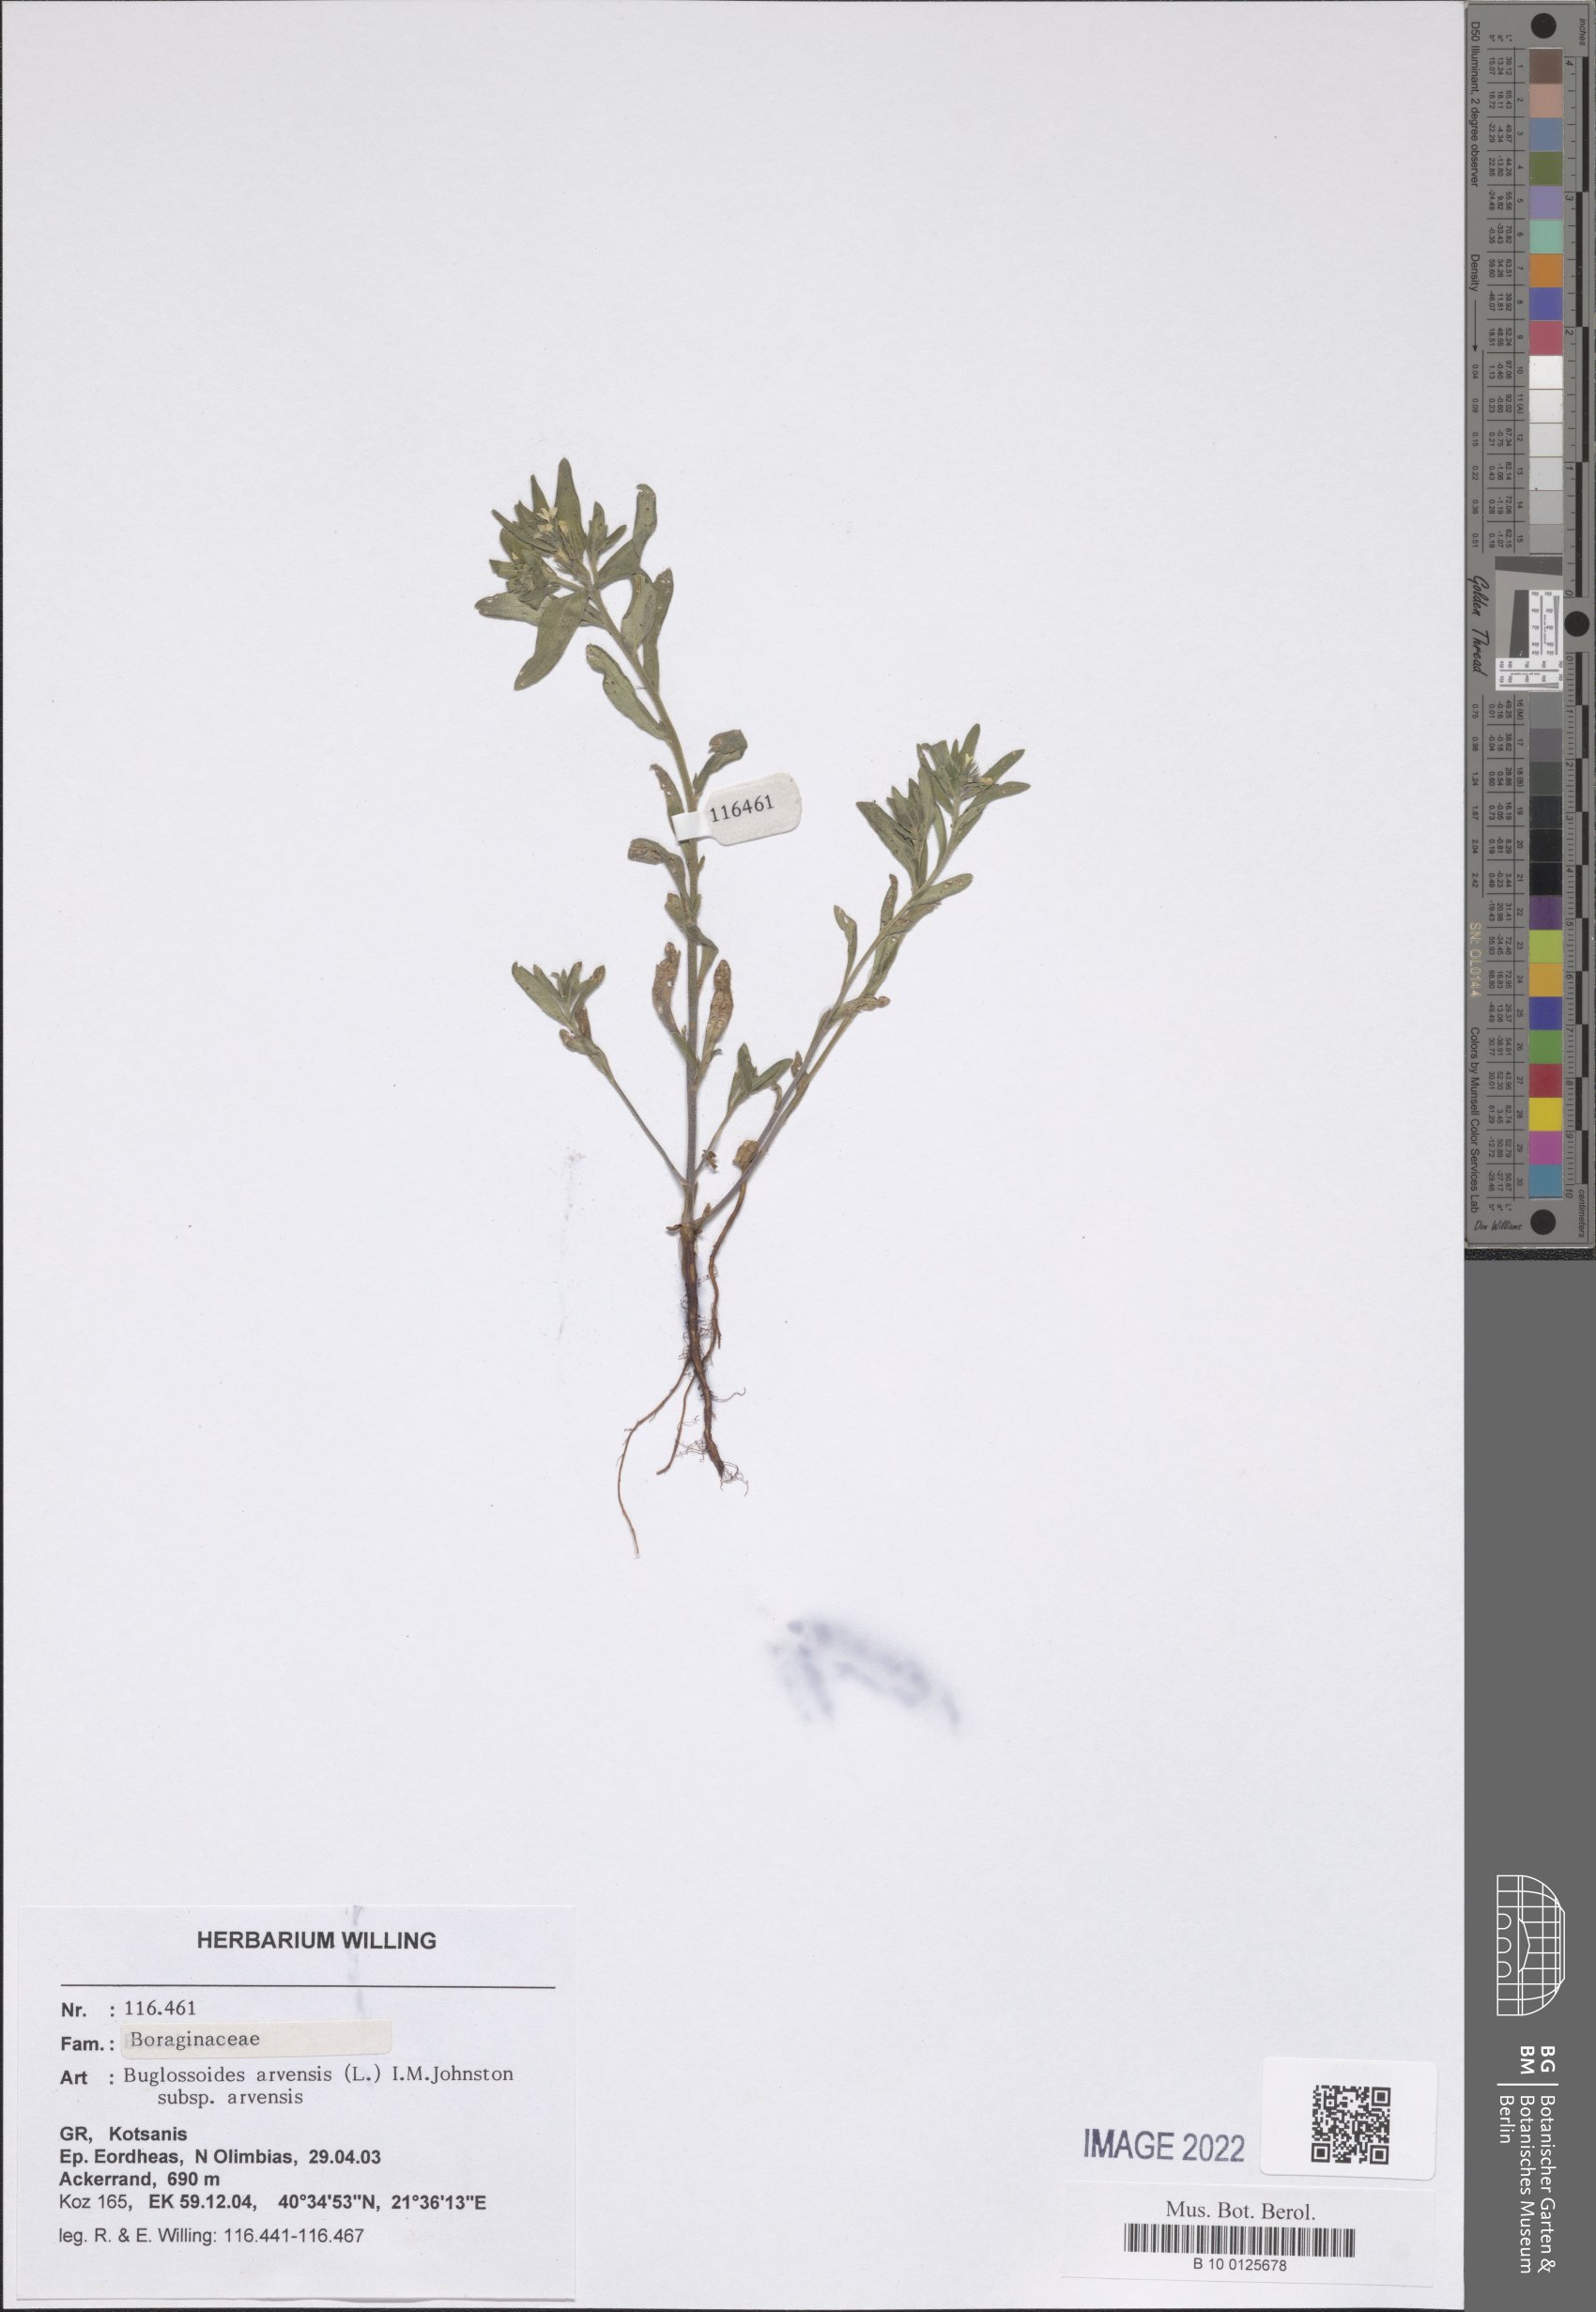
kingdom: Plantae
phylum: Tracheophyta
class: Magnoliopsida
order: Boraginales
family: Boraginaceae
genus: Buglossoides
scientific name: Buglossoides arvensis
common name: Corn gromwell
